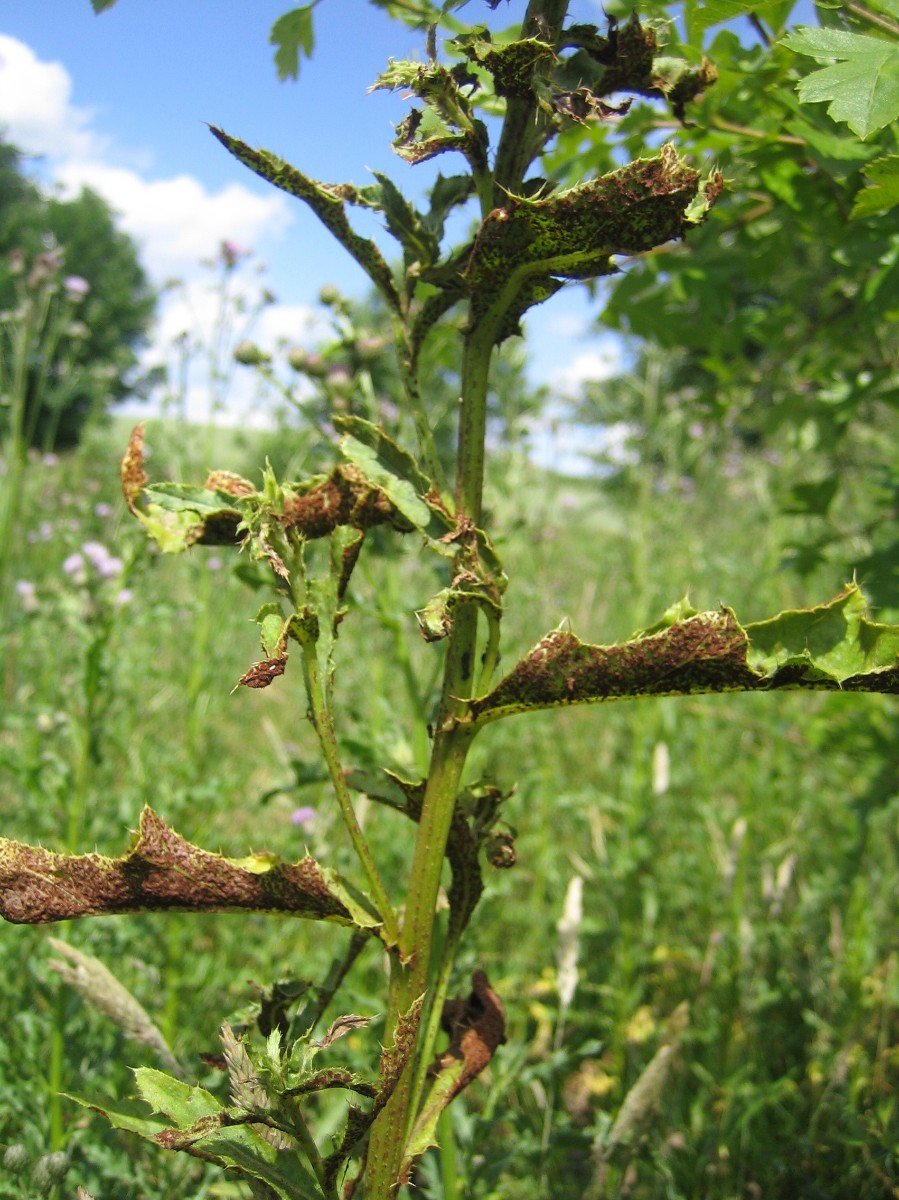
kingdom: Fungi
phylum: Basidiomycota
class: Pucciniomycetes
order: Pucciniales
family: Pucciniaceae
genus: Puccinia
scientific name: Puccinia suaveolens
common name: tidsel-tvecellerust
